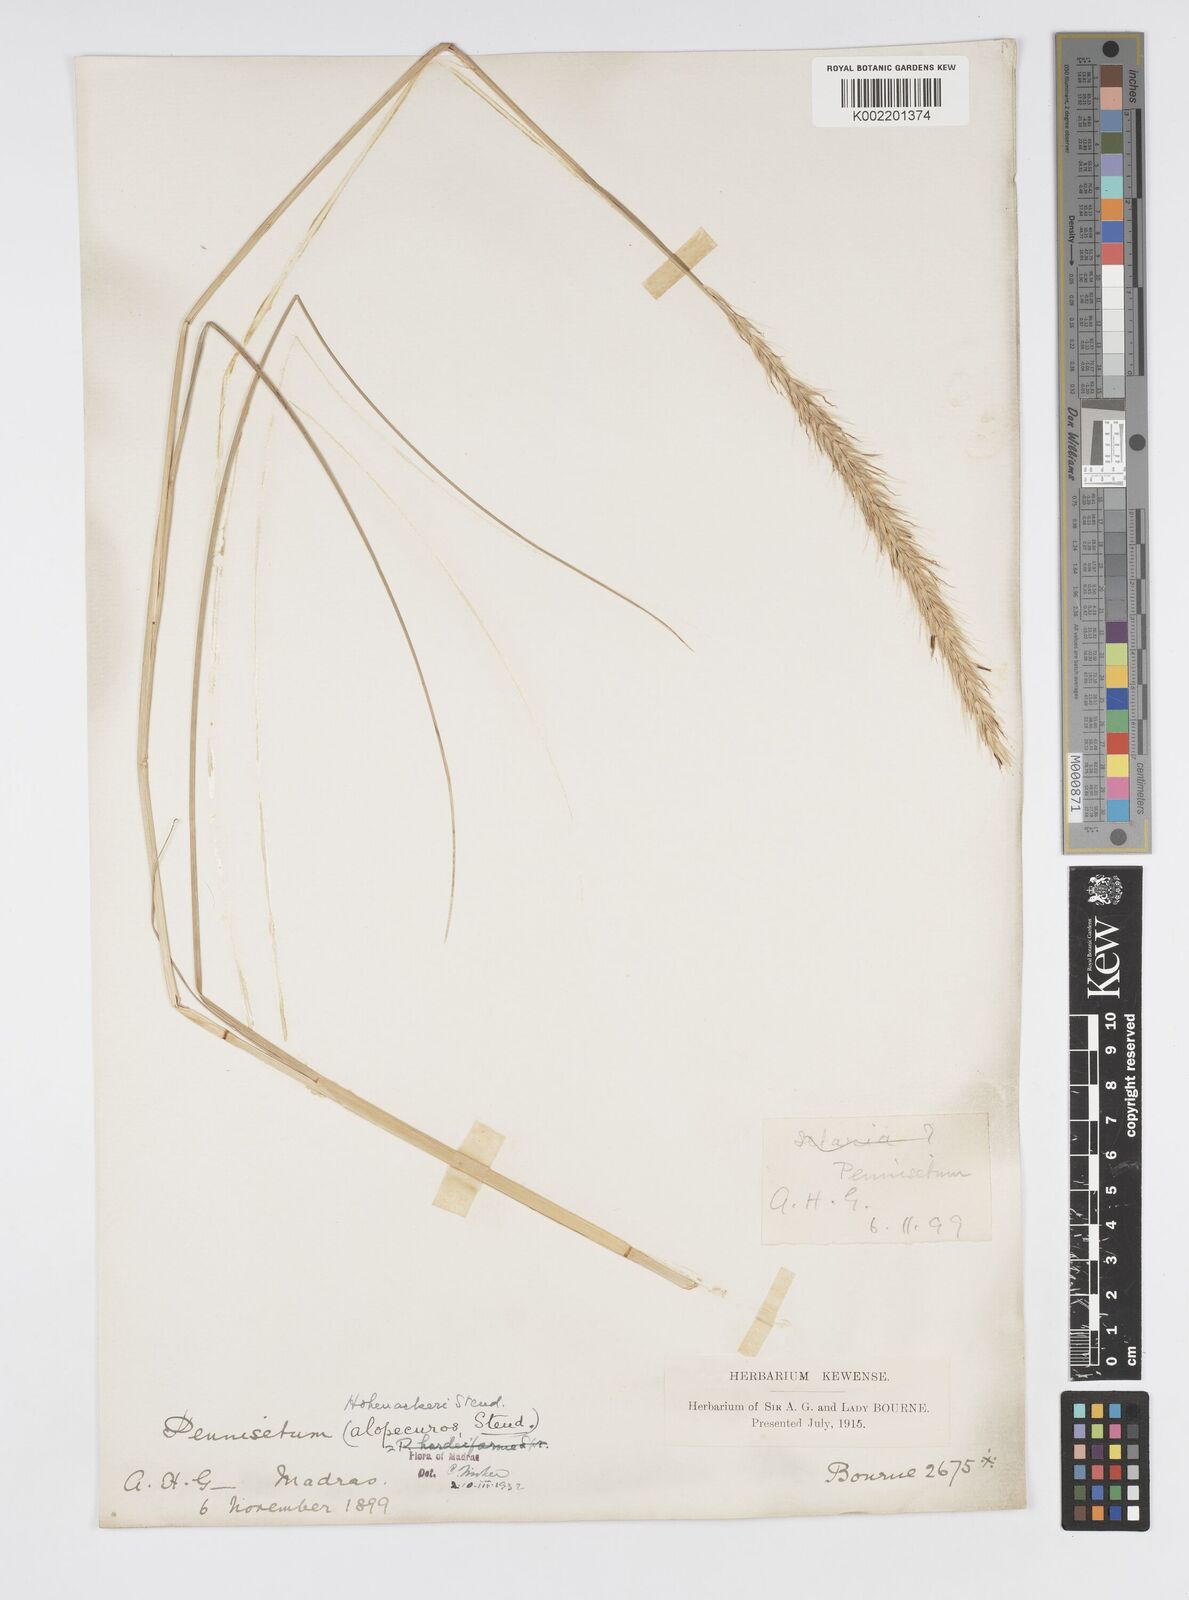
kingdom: Plantae
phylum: Tracheophyta
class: Liliopsida
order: Poales
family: Poaceae
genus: Cenchrus
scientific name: Cenchrus hohenackeri
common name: Moya grass
